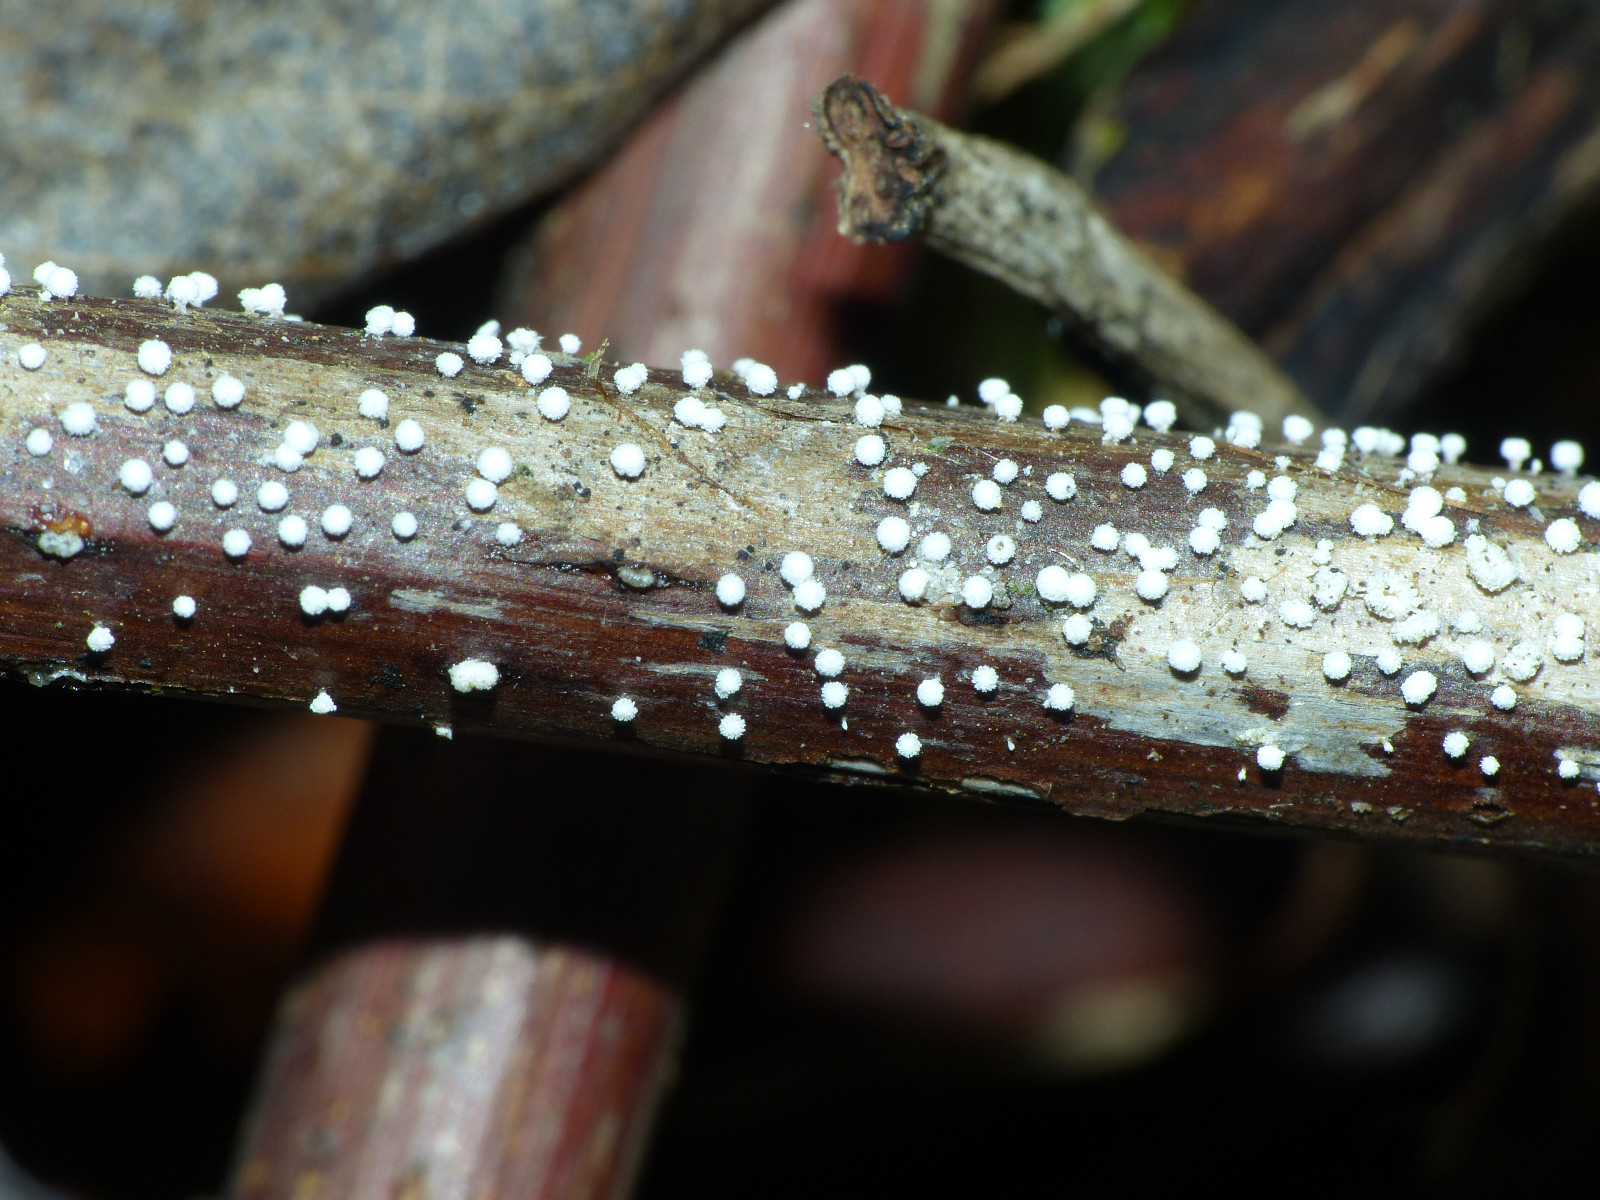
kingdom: Fungi
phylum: Ascomycota
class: Leotiomycetes
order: Helotiales
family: Lachnaceae
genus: Capitotricha
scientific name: Capitotricha rubi
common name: orangegul frynseskive
